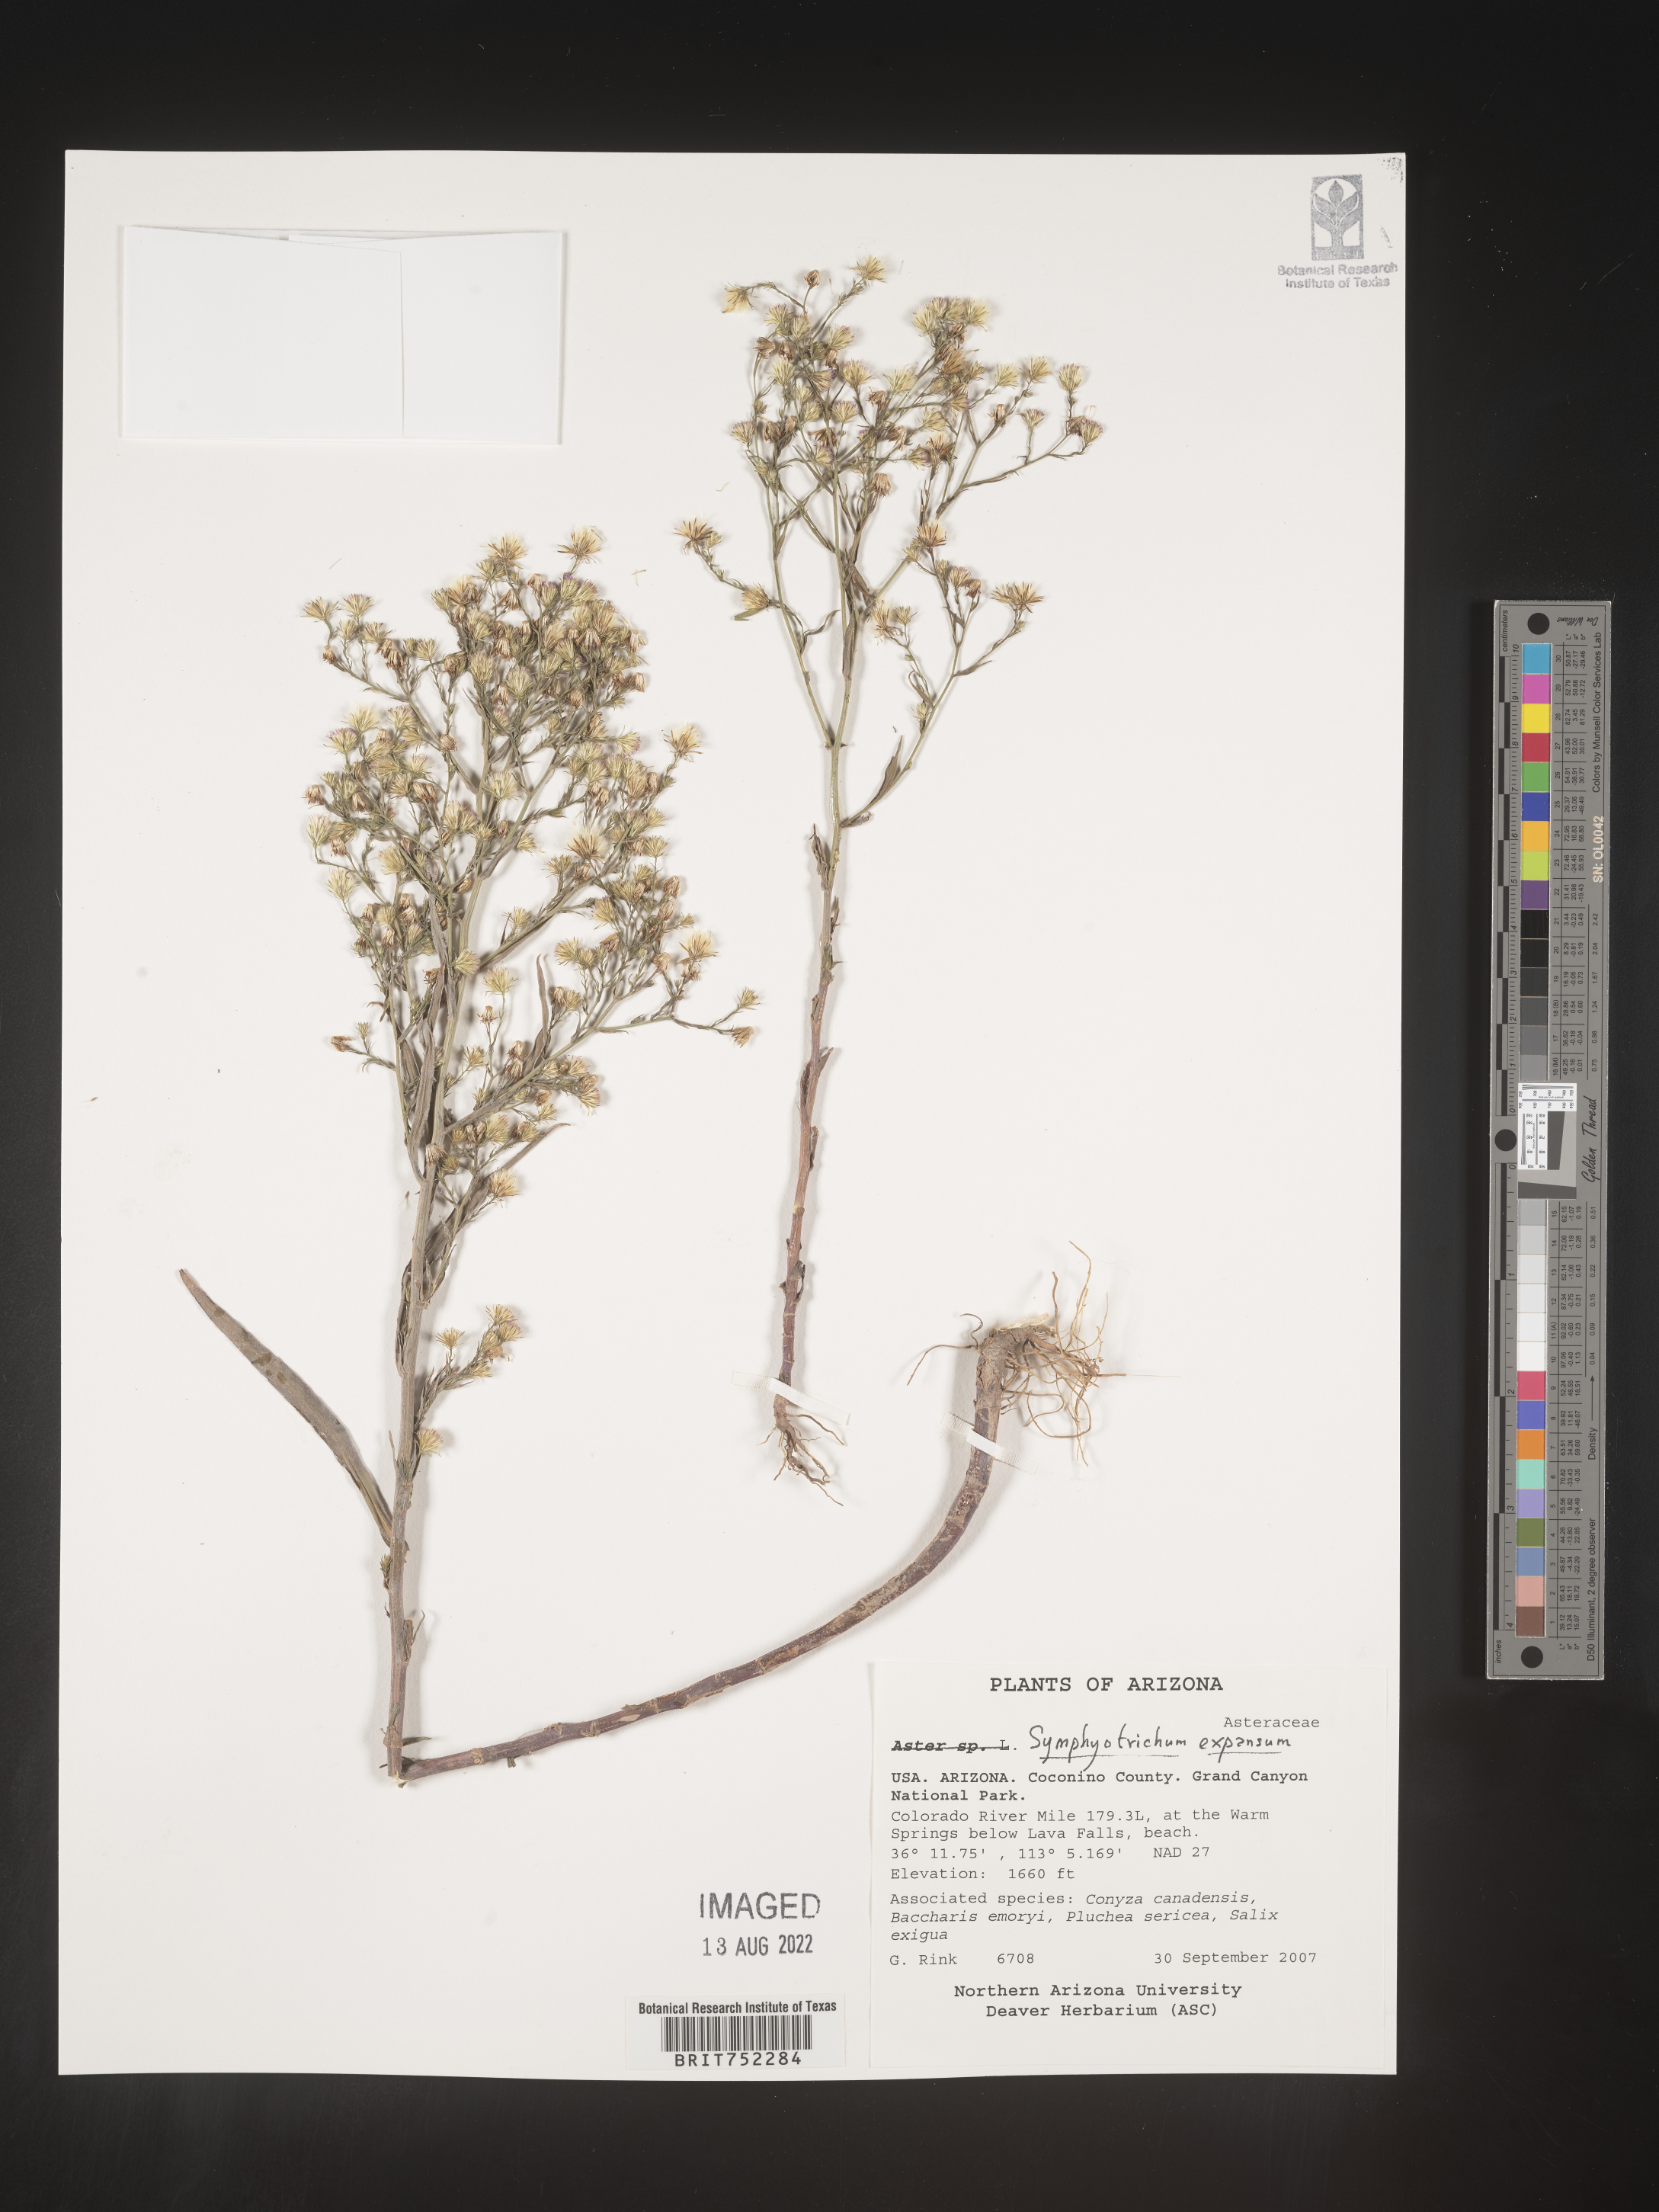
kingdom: Plantae
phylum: Tracheophyta
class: Magnoliopsida
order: Asterales
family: Asteraceae
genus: Symphyotrichum
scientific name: Symphyotrichum expansum
